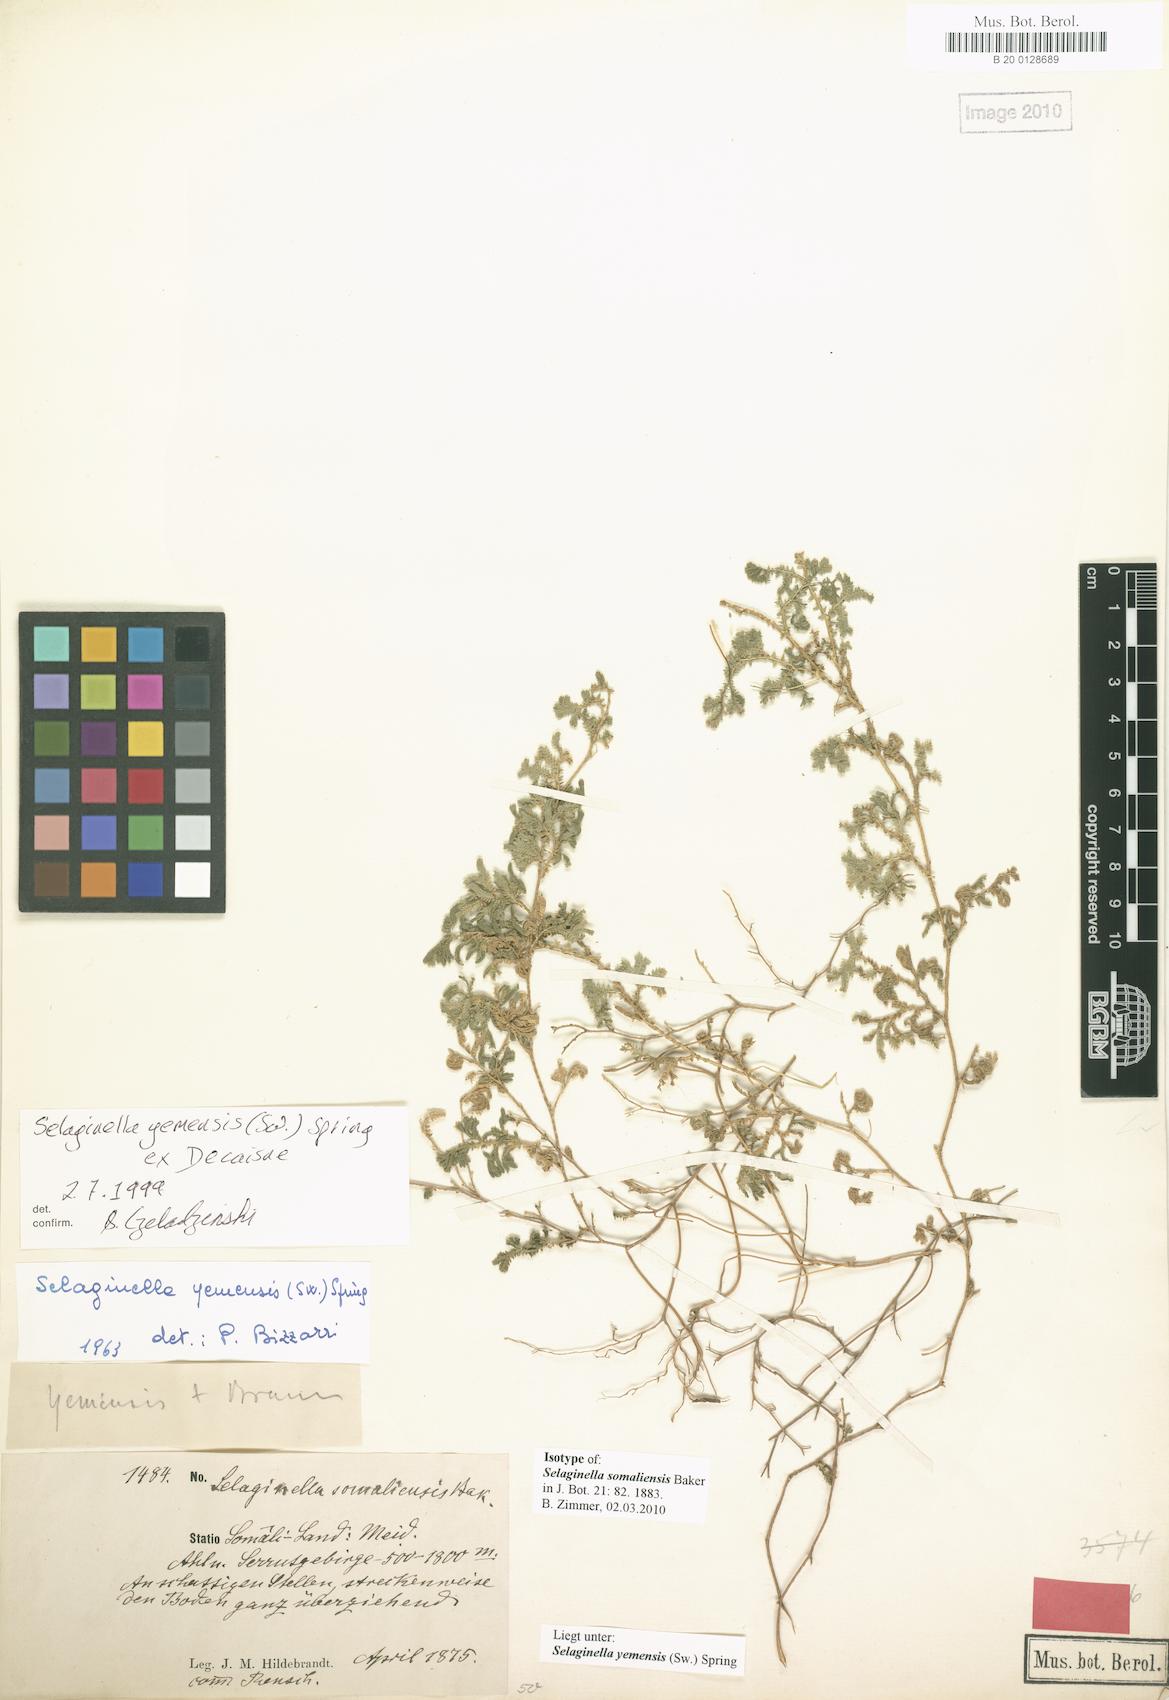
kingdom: Plantae
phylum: Tracheophyta
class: Lycopodiopsida
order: Selaginellales
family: Selaginellaceae
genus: Selaginella
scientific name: Selaginella yemensis
